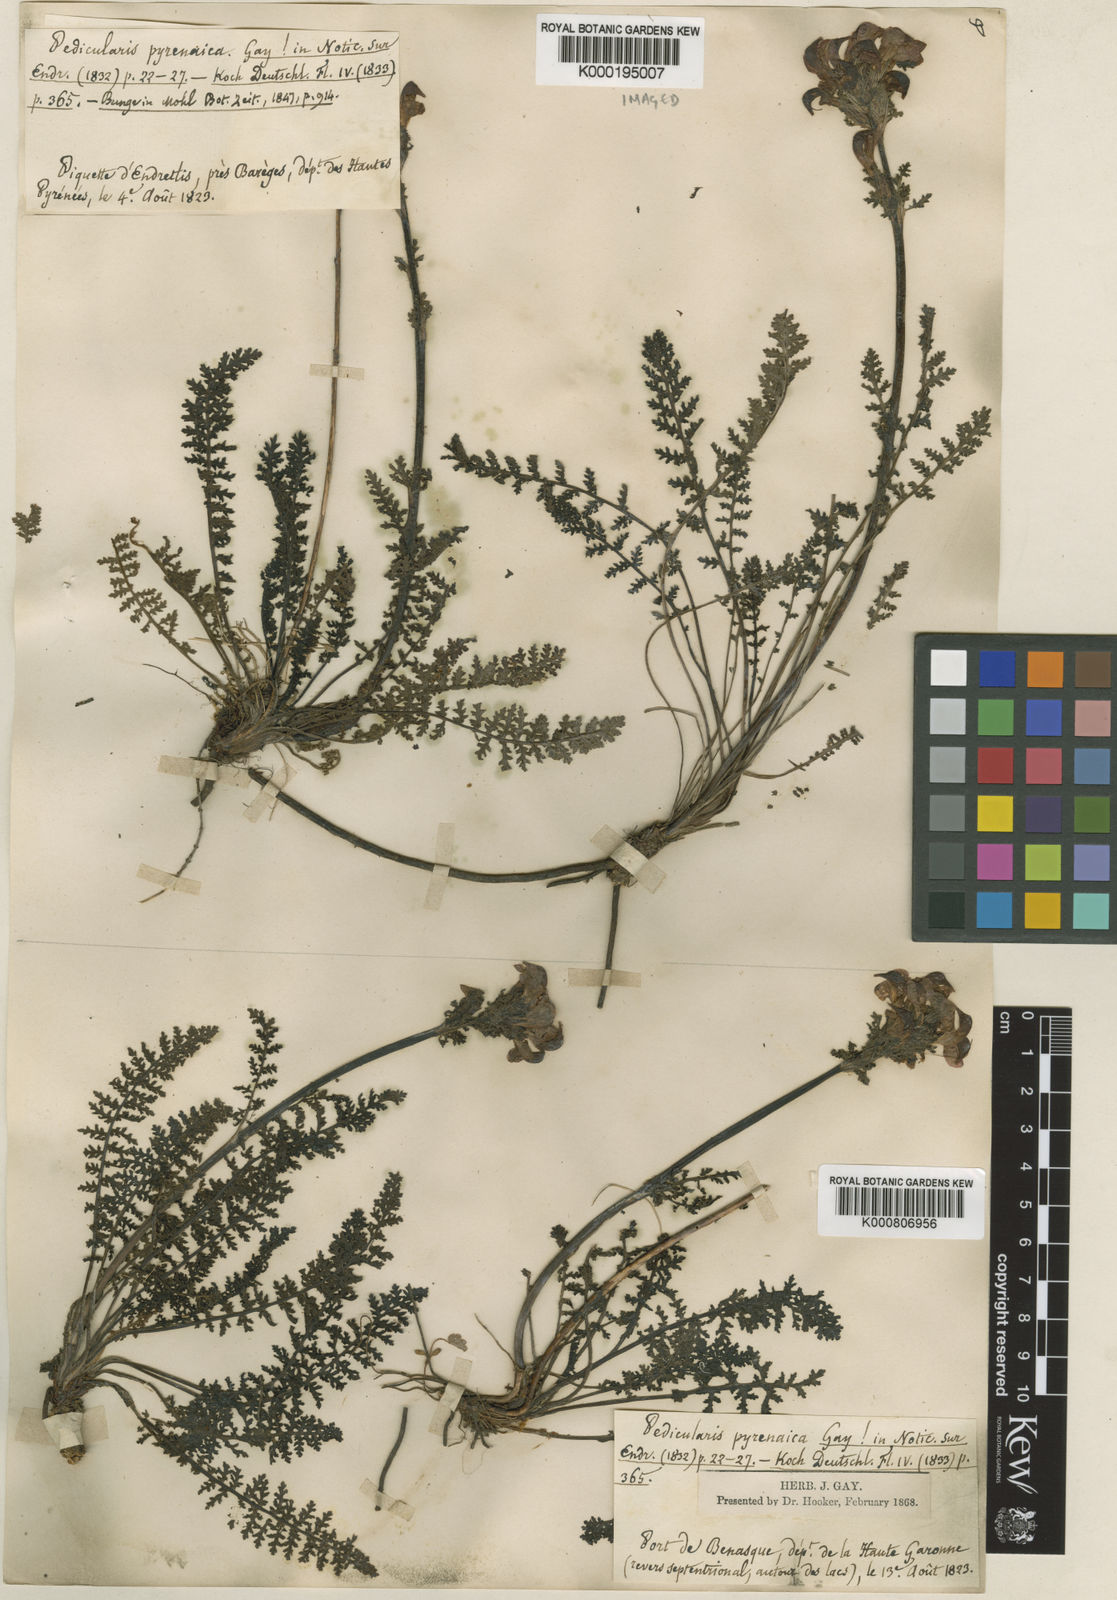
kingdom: Plantae
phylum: Tracheophyta
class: Magnoliopsida
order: Lamiales
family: Orobanchaceae
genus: Pedicularis
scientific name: Pedicularis pyrenaica
